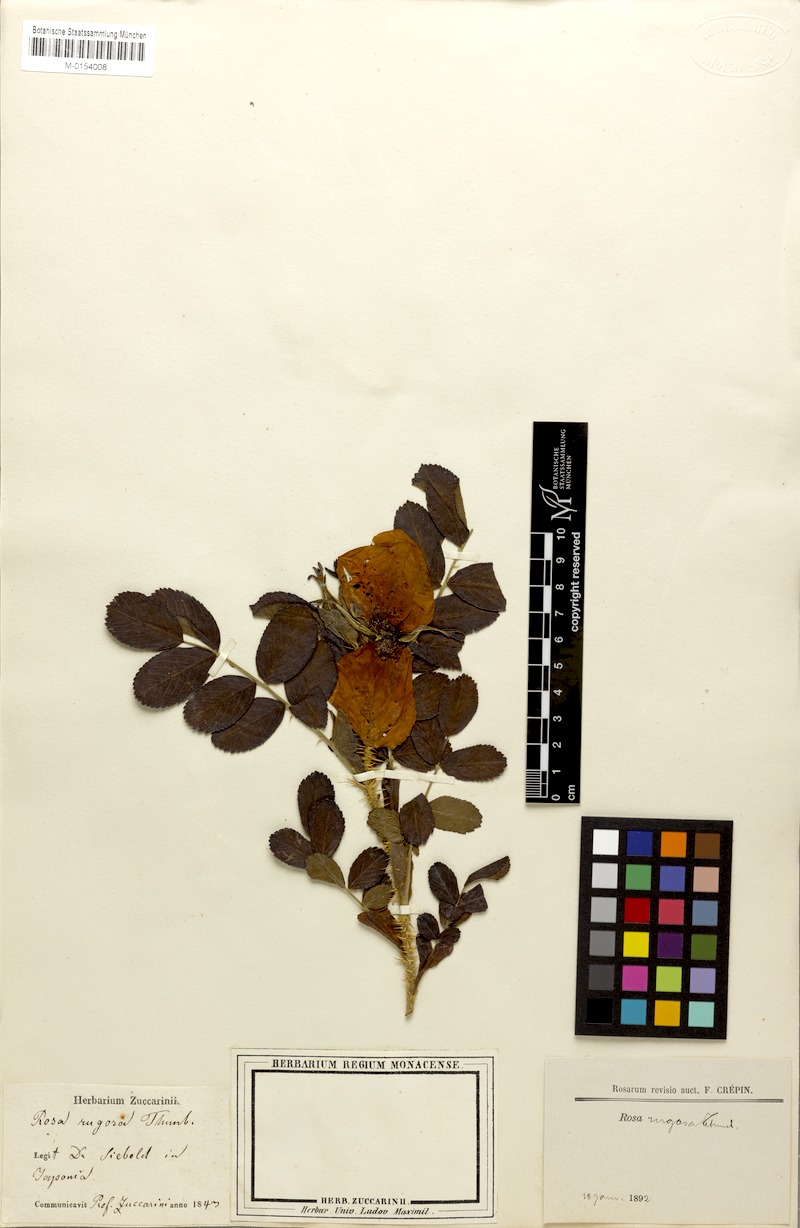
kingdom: Plantae
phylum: Tracheophyta
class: Magnoliopsida
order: Rosales
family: Rosaceae
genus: Rosa
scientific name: Rosa rugosa
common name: Japanese rose
